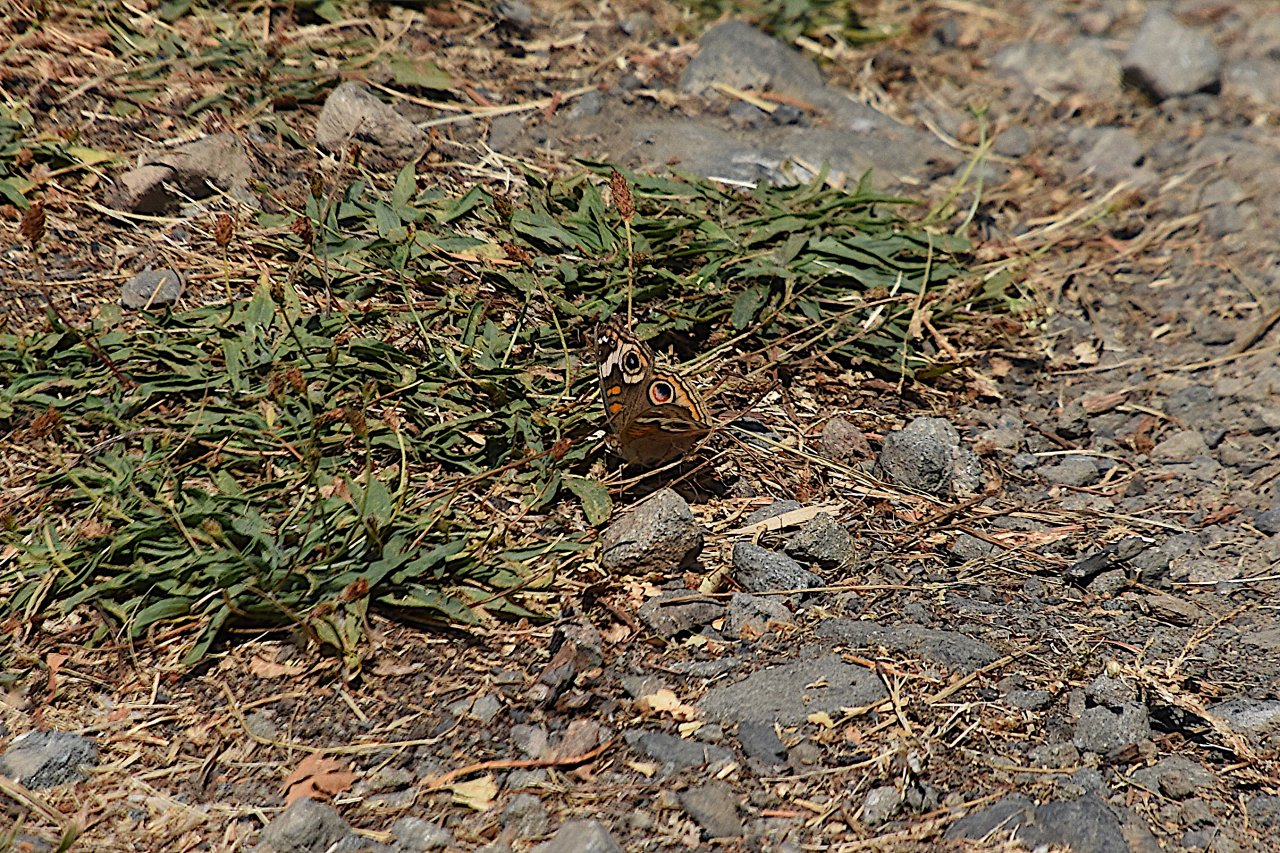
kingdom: Animalia
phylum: Arthropoda
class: Insecta
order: Lepidoptera
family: Nymphalidae
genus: Junonia
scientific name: Junonia coenia
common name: Common Buckeye
